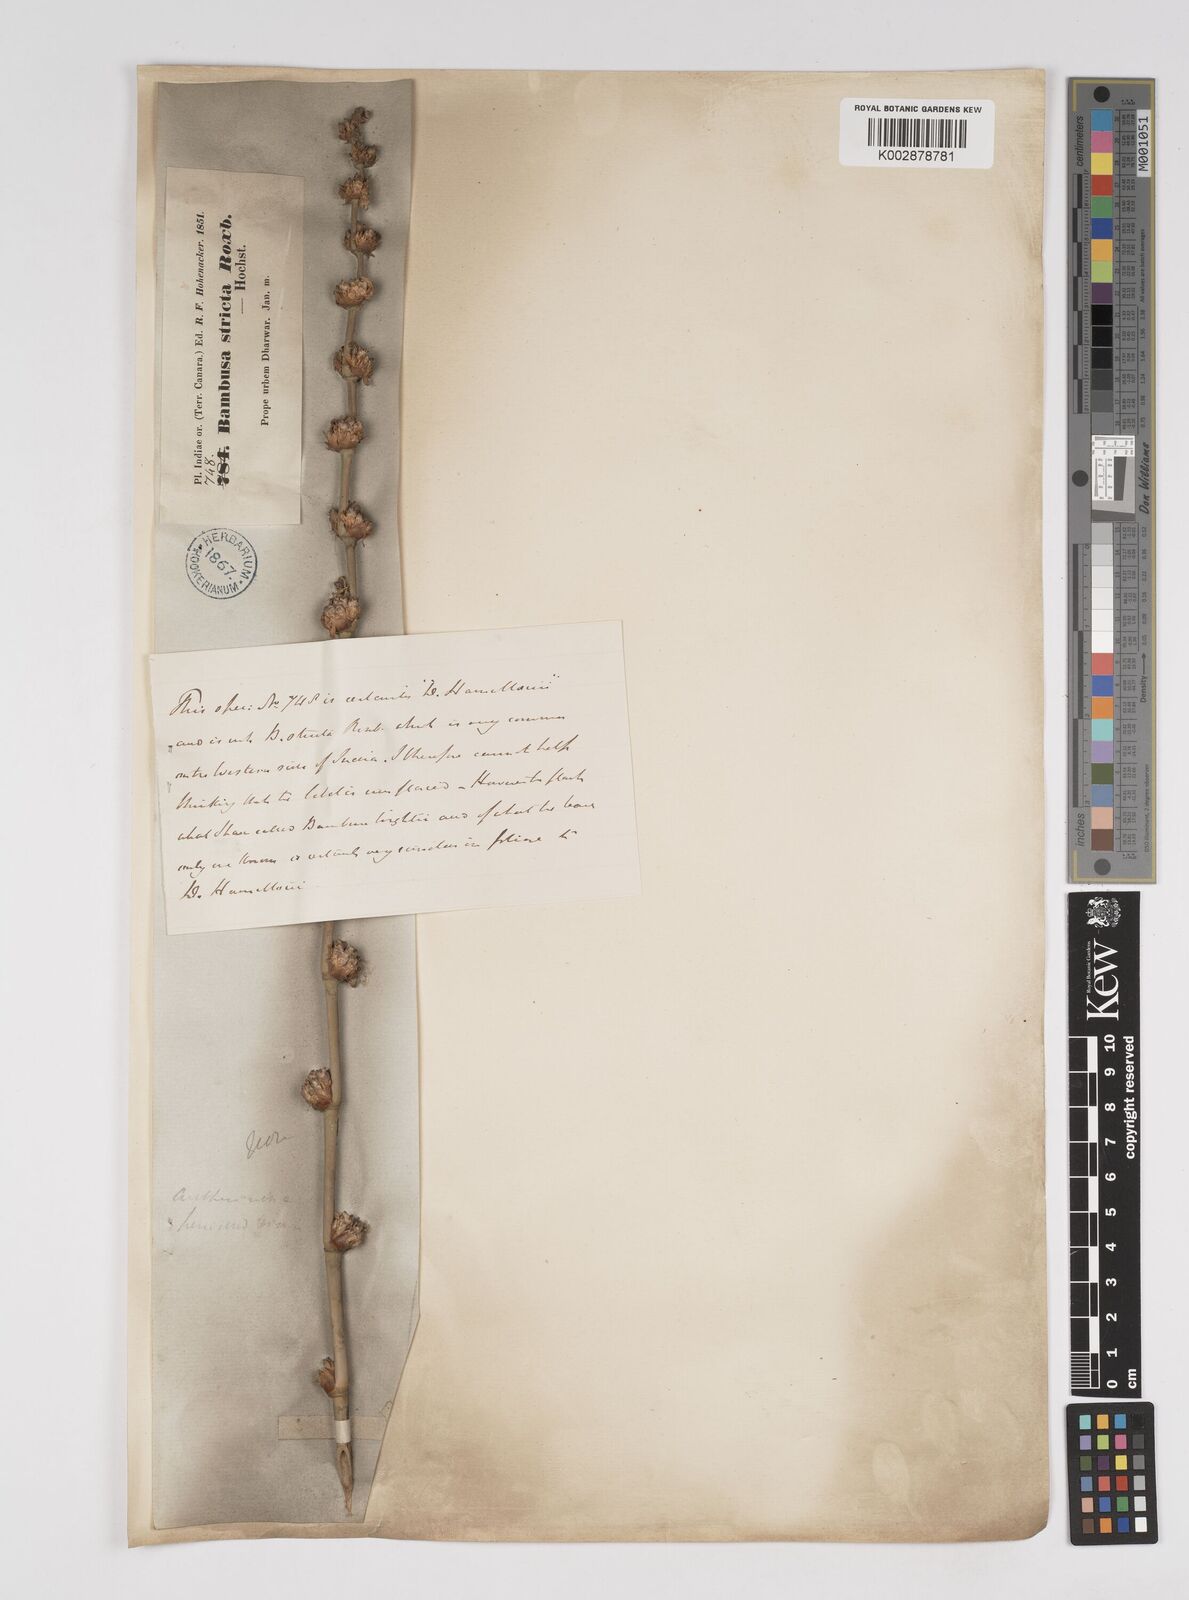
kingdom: Plantae
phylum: Tracheophyta
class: Liliopsida
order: Poales
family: Poaceae
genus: Dendrocalamus
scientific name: Dendrocalamus hamiltonii
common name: Tama bamboo
